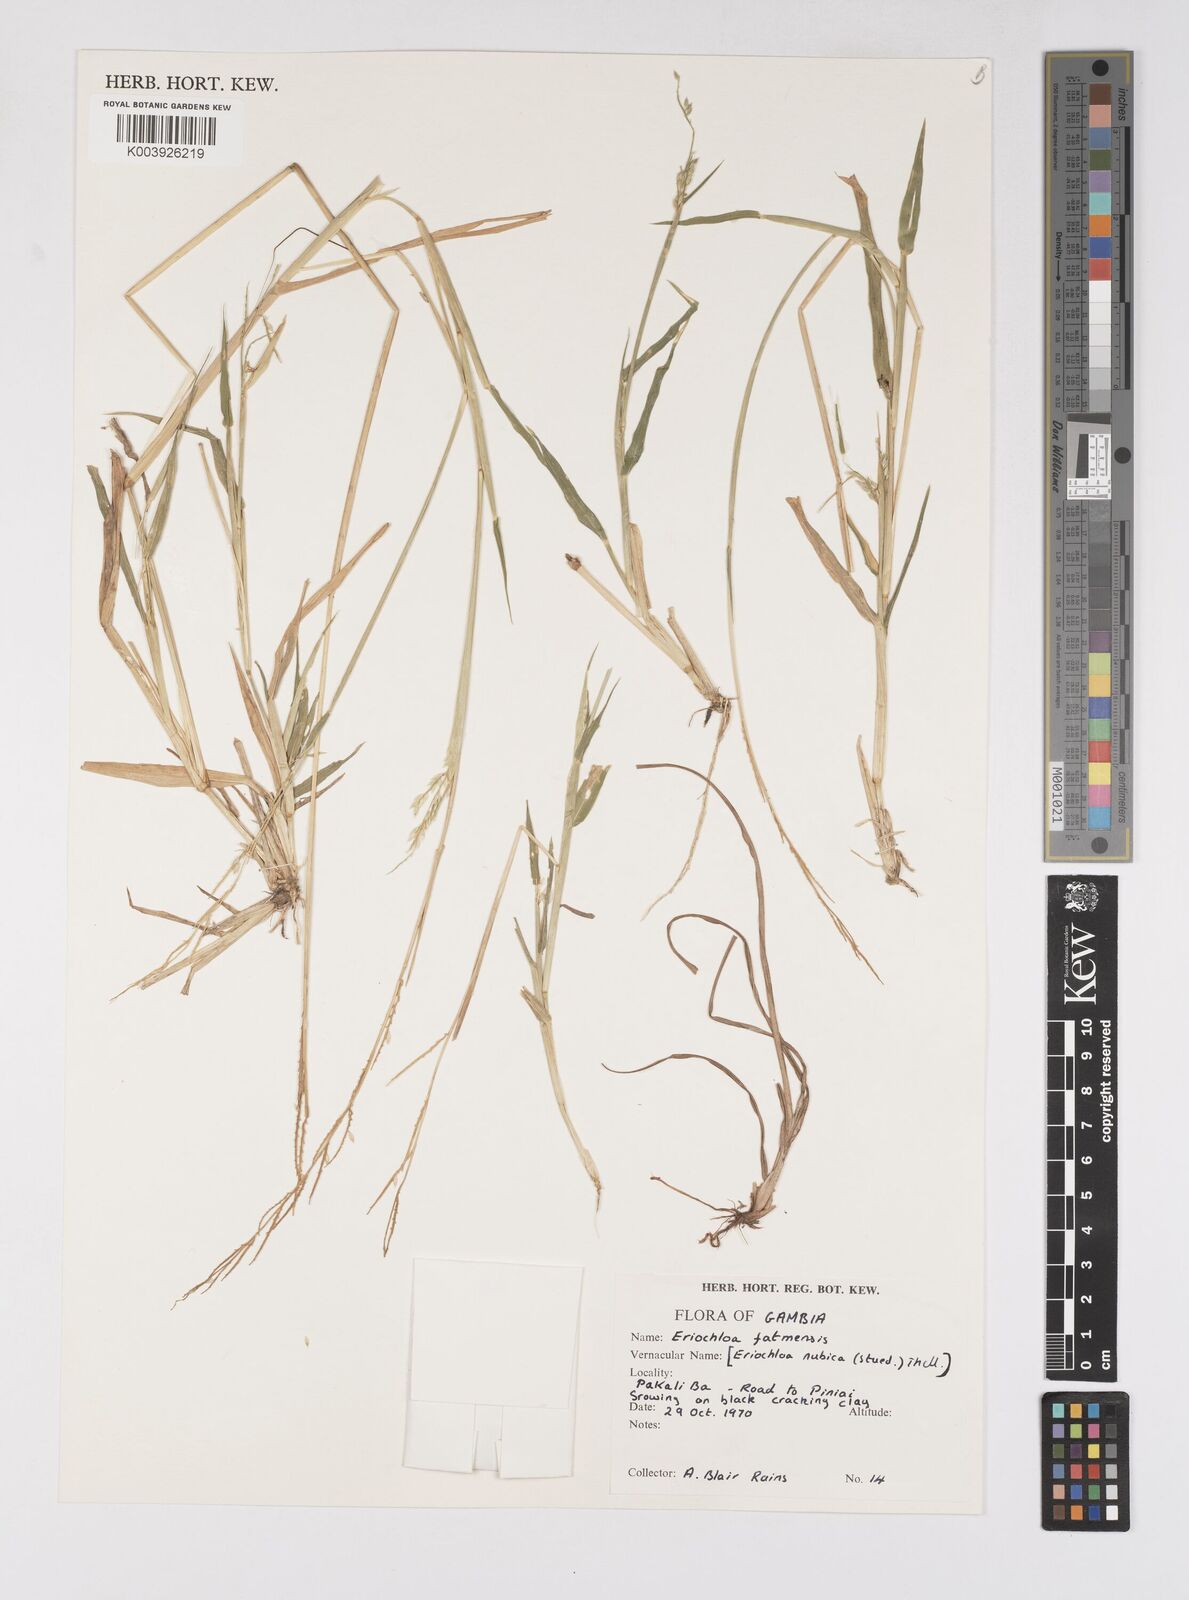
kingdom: Plantae
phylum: Tracheophyta
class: Liliopsida
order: Poales
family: Poaceae
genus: Eriochloa
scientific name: Eriochloa barbatus
